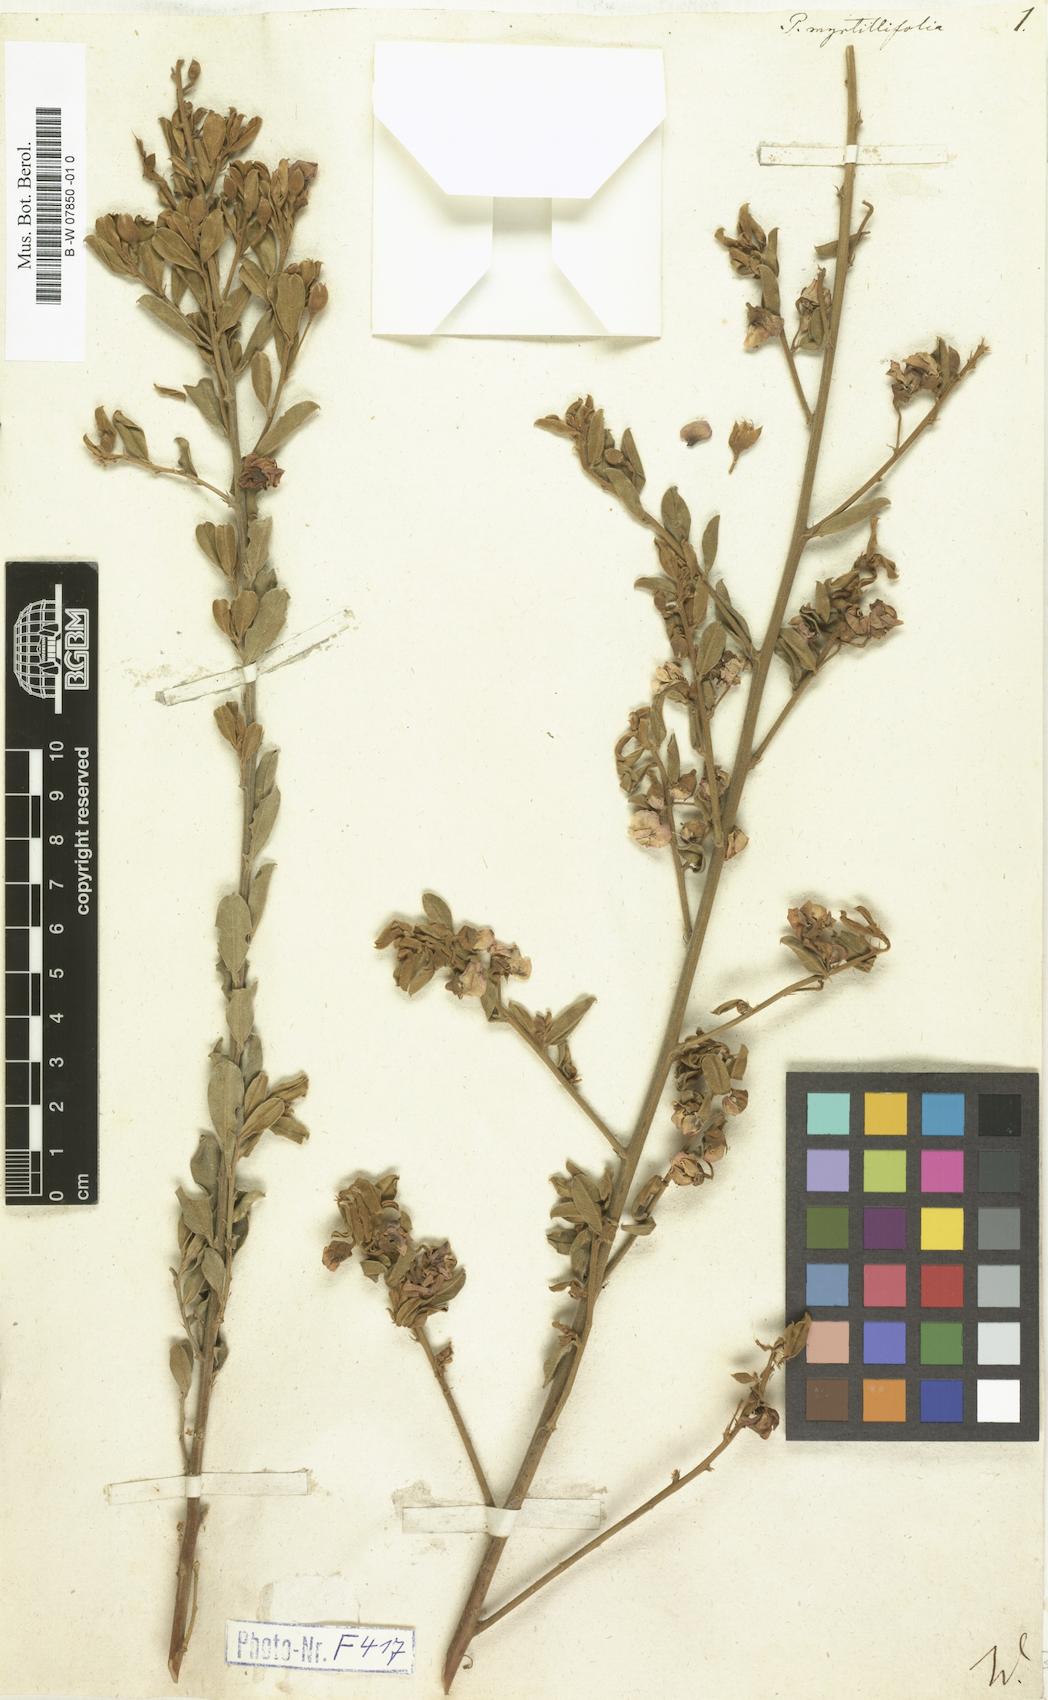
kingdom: Plantae
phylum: Tracheophyta
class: Magnoliopsida
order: Fabales
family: Fabaceae
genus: Podalyria
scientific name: Podalyria myrtillifolia
